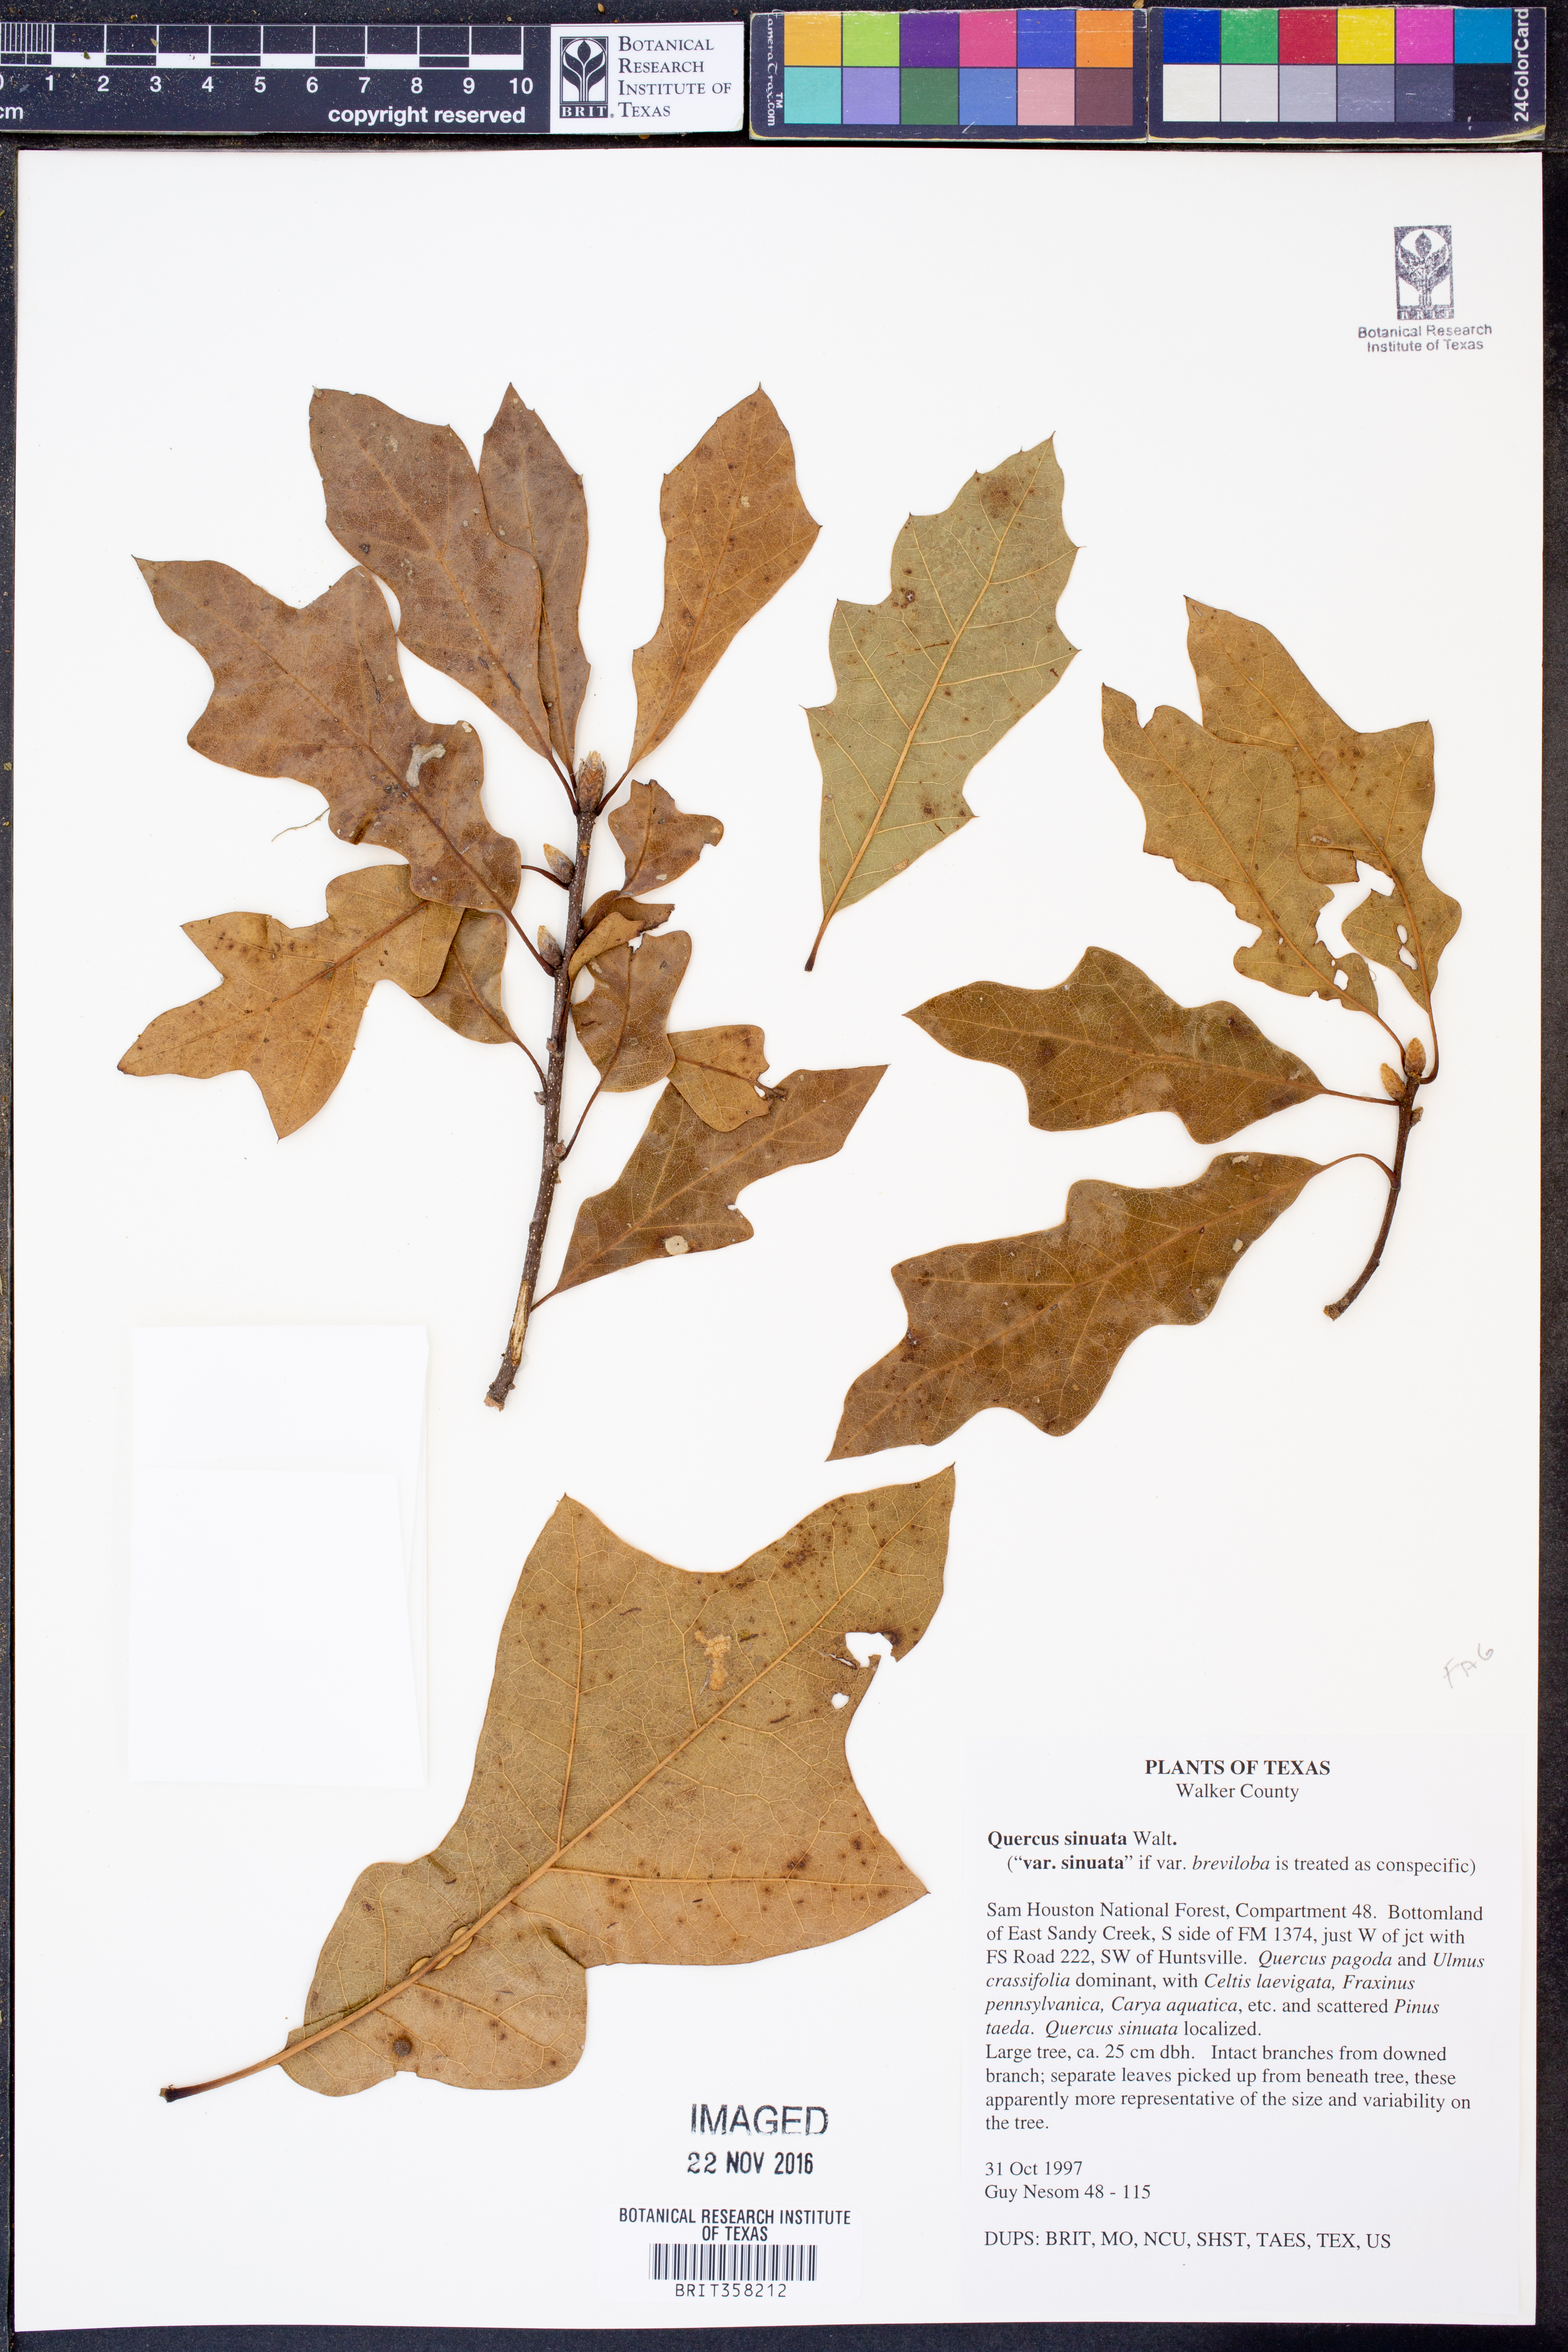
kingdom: Plantae
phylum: Tracheophyta
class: Magnoliopsida
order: Fagales
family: Fagaceae
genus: Quercus
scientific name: Quercus sinuata
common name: Durand oak
